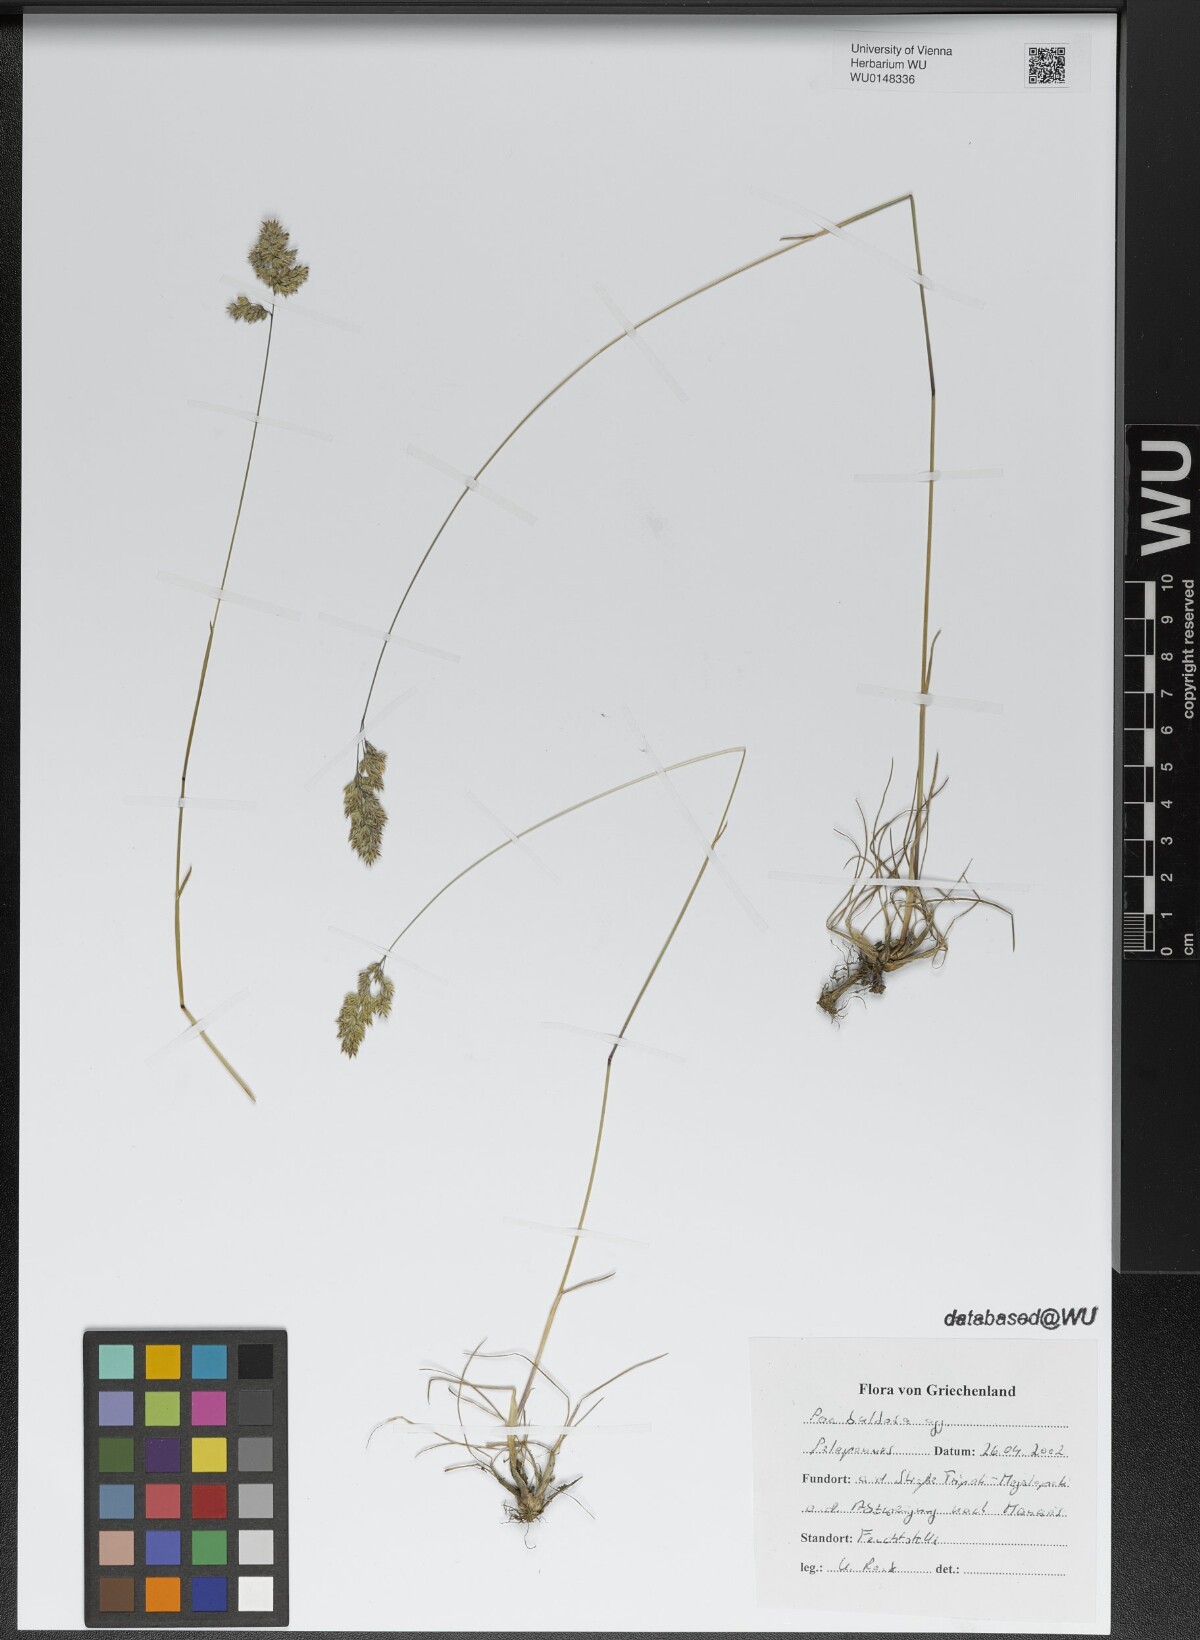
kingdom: Plantae
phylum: Tracheophyta
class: Liliopsida
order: Poales
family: Poaceae
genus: Poa
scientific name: Poa bulbosa
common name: Bulbous bluegrass
